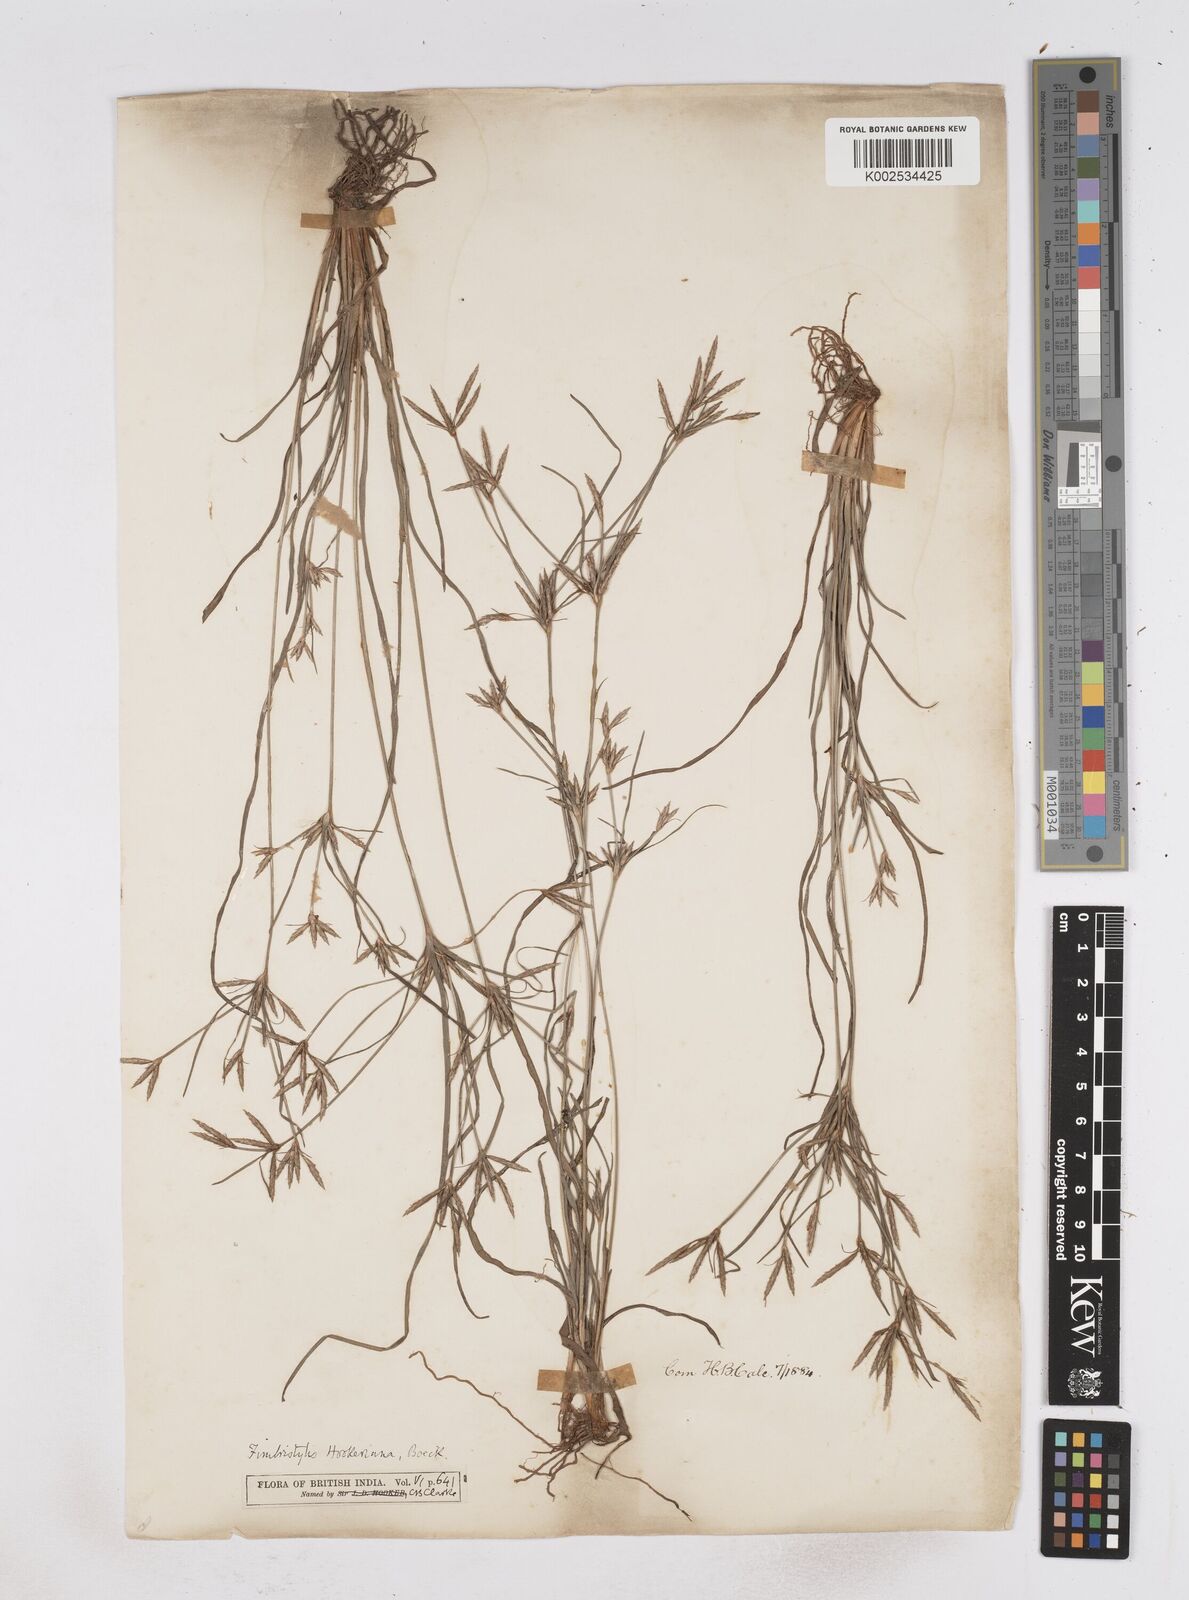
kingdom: Plantae
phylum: Tracheophyta
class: Liliopsida
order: Poales
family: Cyperaceae
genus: Fimbristylis
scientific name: Fimbristylis hookeriana
